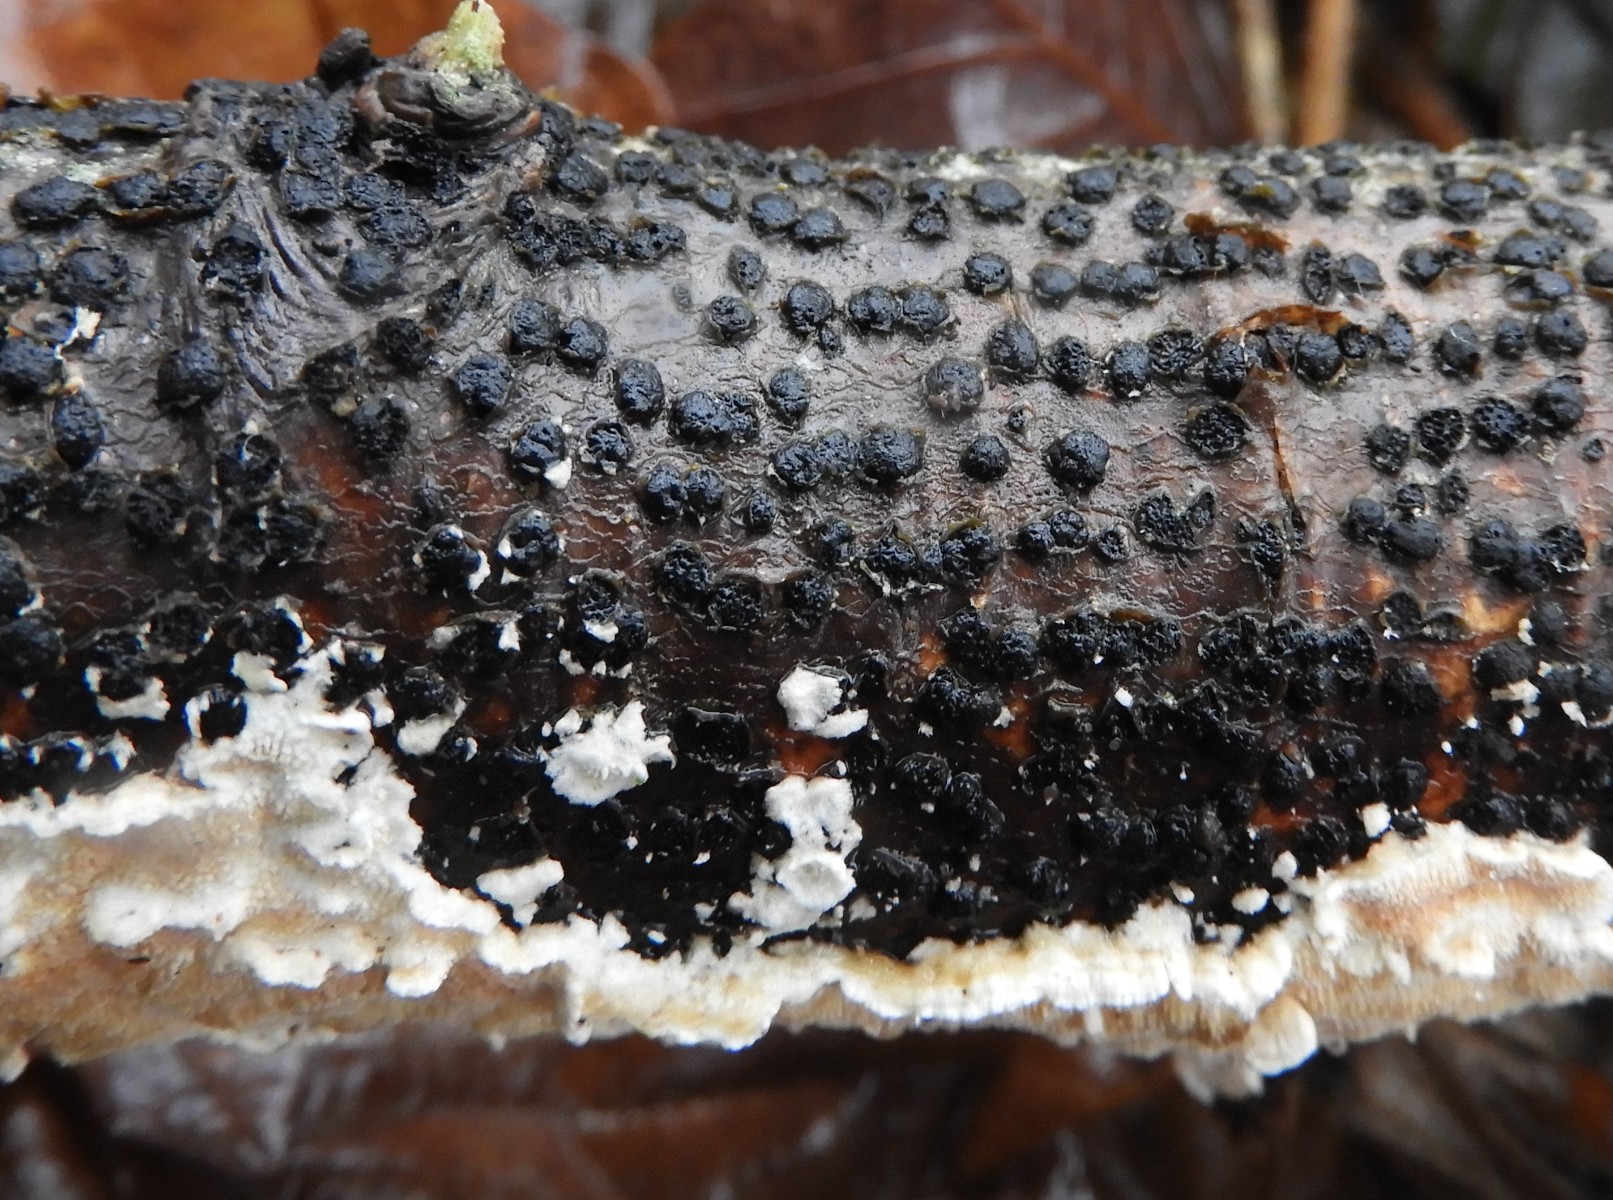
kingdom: Fungi
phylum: Ascomycota
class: Sordariomycetes
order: Xylariales
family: Diatrypaceae
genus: Diatrypella
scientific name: Diatrypella quercina
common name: ege-kulskorpe
